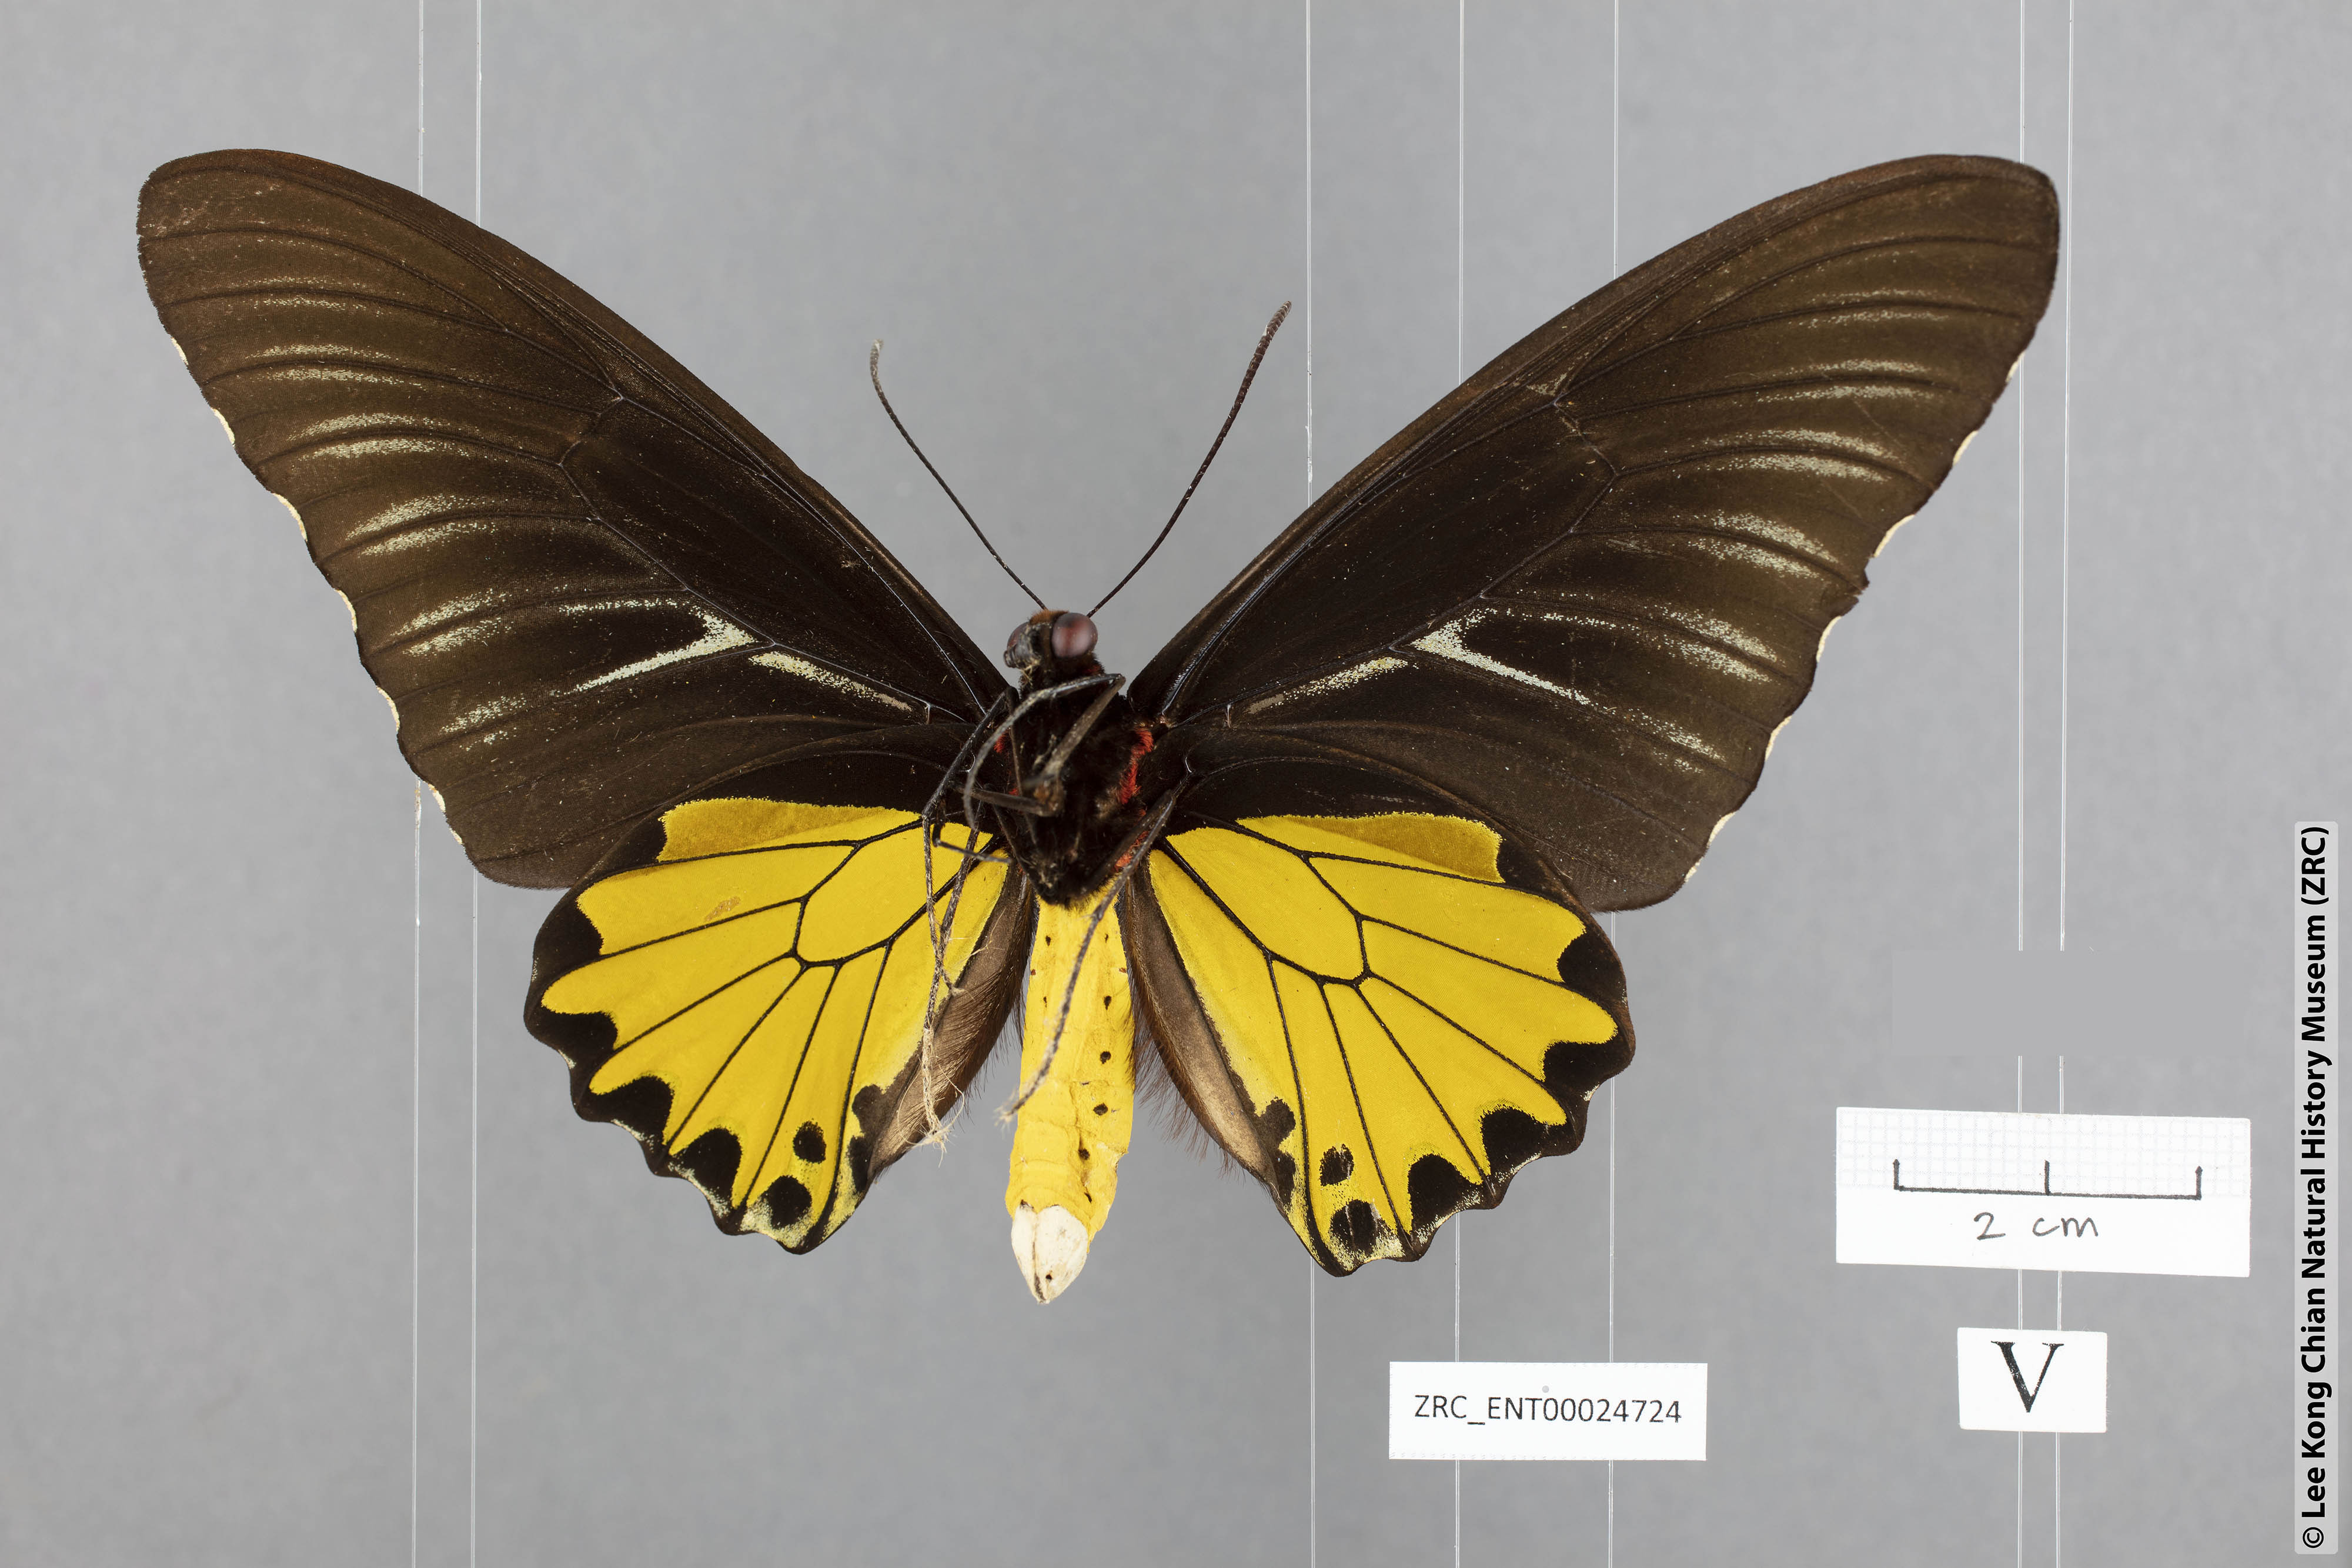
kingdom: Animalia
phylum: Arthropoda
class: Insecta
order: Lepidoptera
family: Papilionidae
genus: Troides
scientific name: Troides helena
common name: Common birdwing
